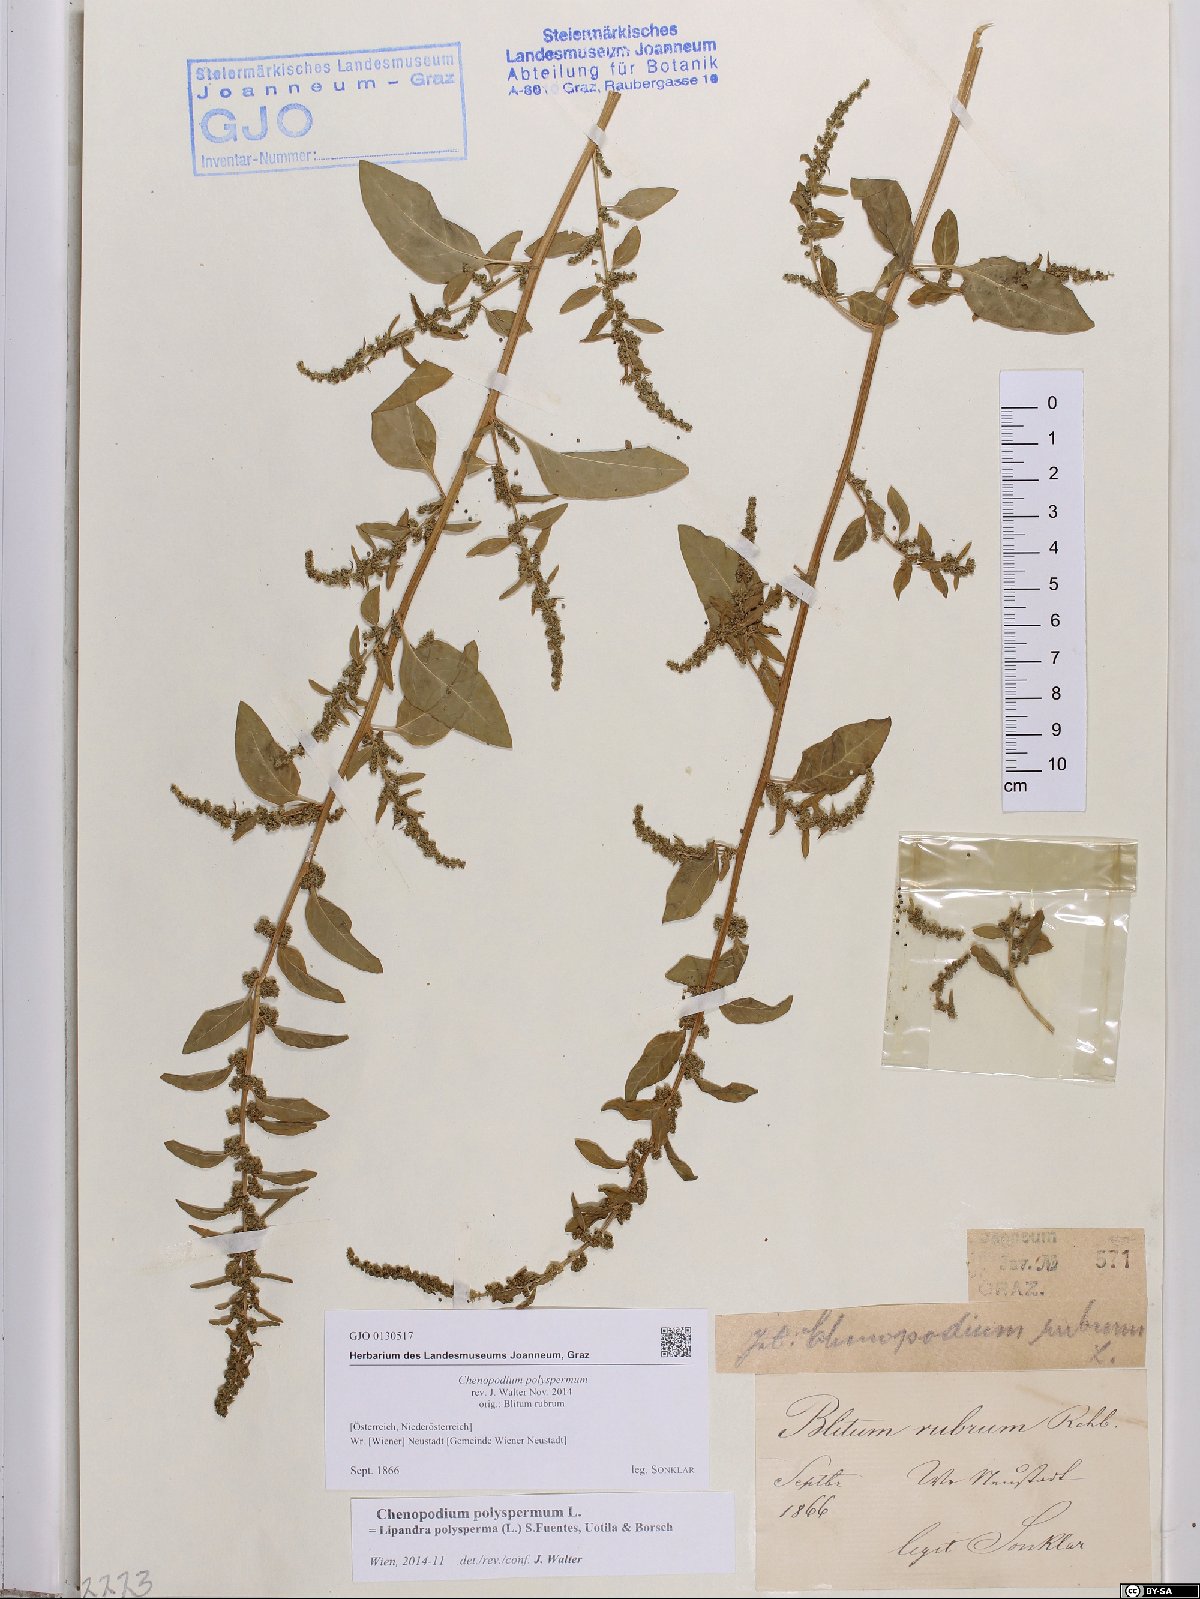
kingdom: Plantae
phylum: Tracheophyta
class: Magnoliopsida
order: Caryophyllales
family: Amaranthaceae
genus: Lipandra
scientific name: Lipandra polysperma
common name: Many-seed goosefoot
